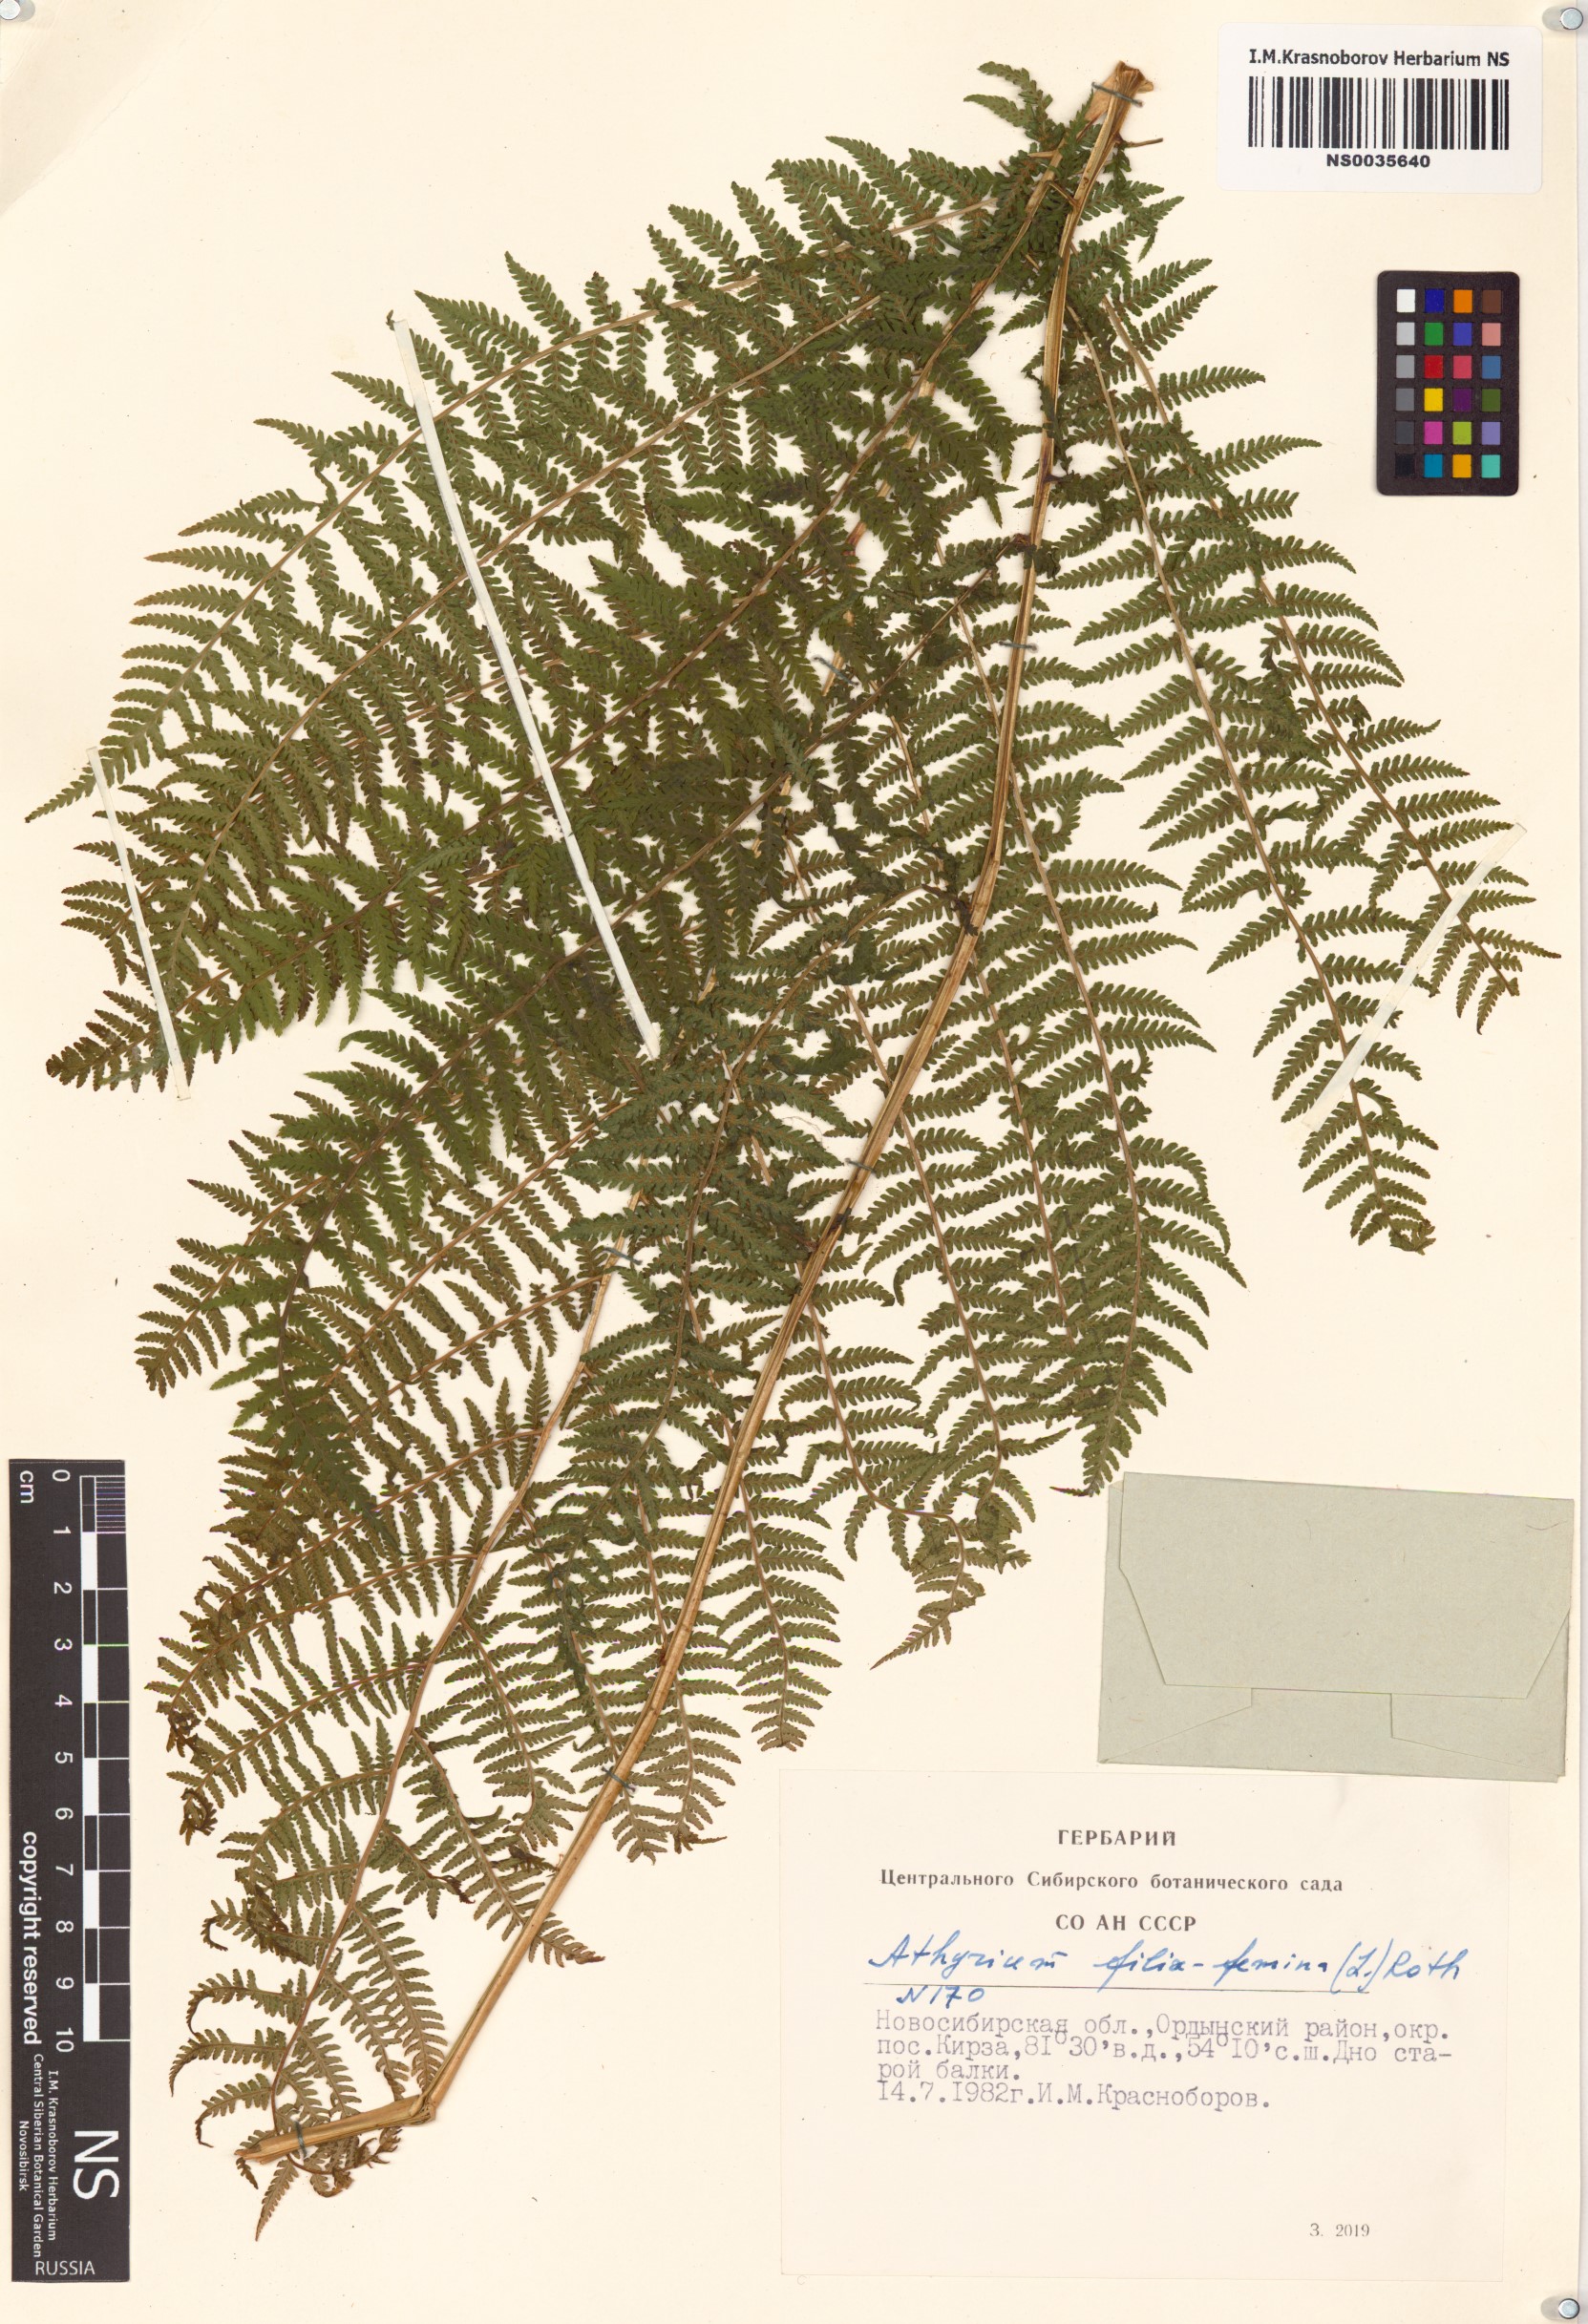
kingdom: Plantae
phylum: Tracheophyta
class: Polypodiopsida
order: Polypodiales
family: Athyriaceae
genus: Athyrium
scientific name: Athyrium filix-femina
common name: Lady fern
